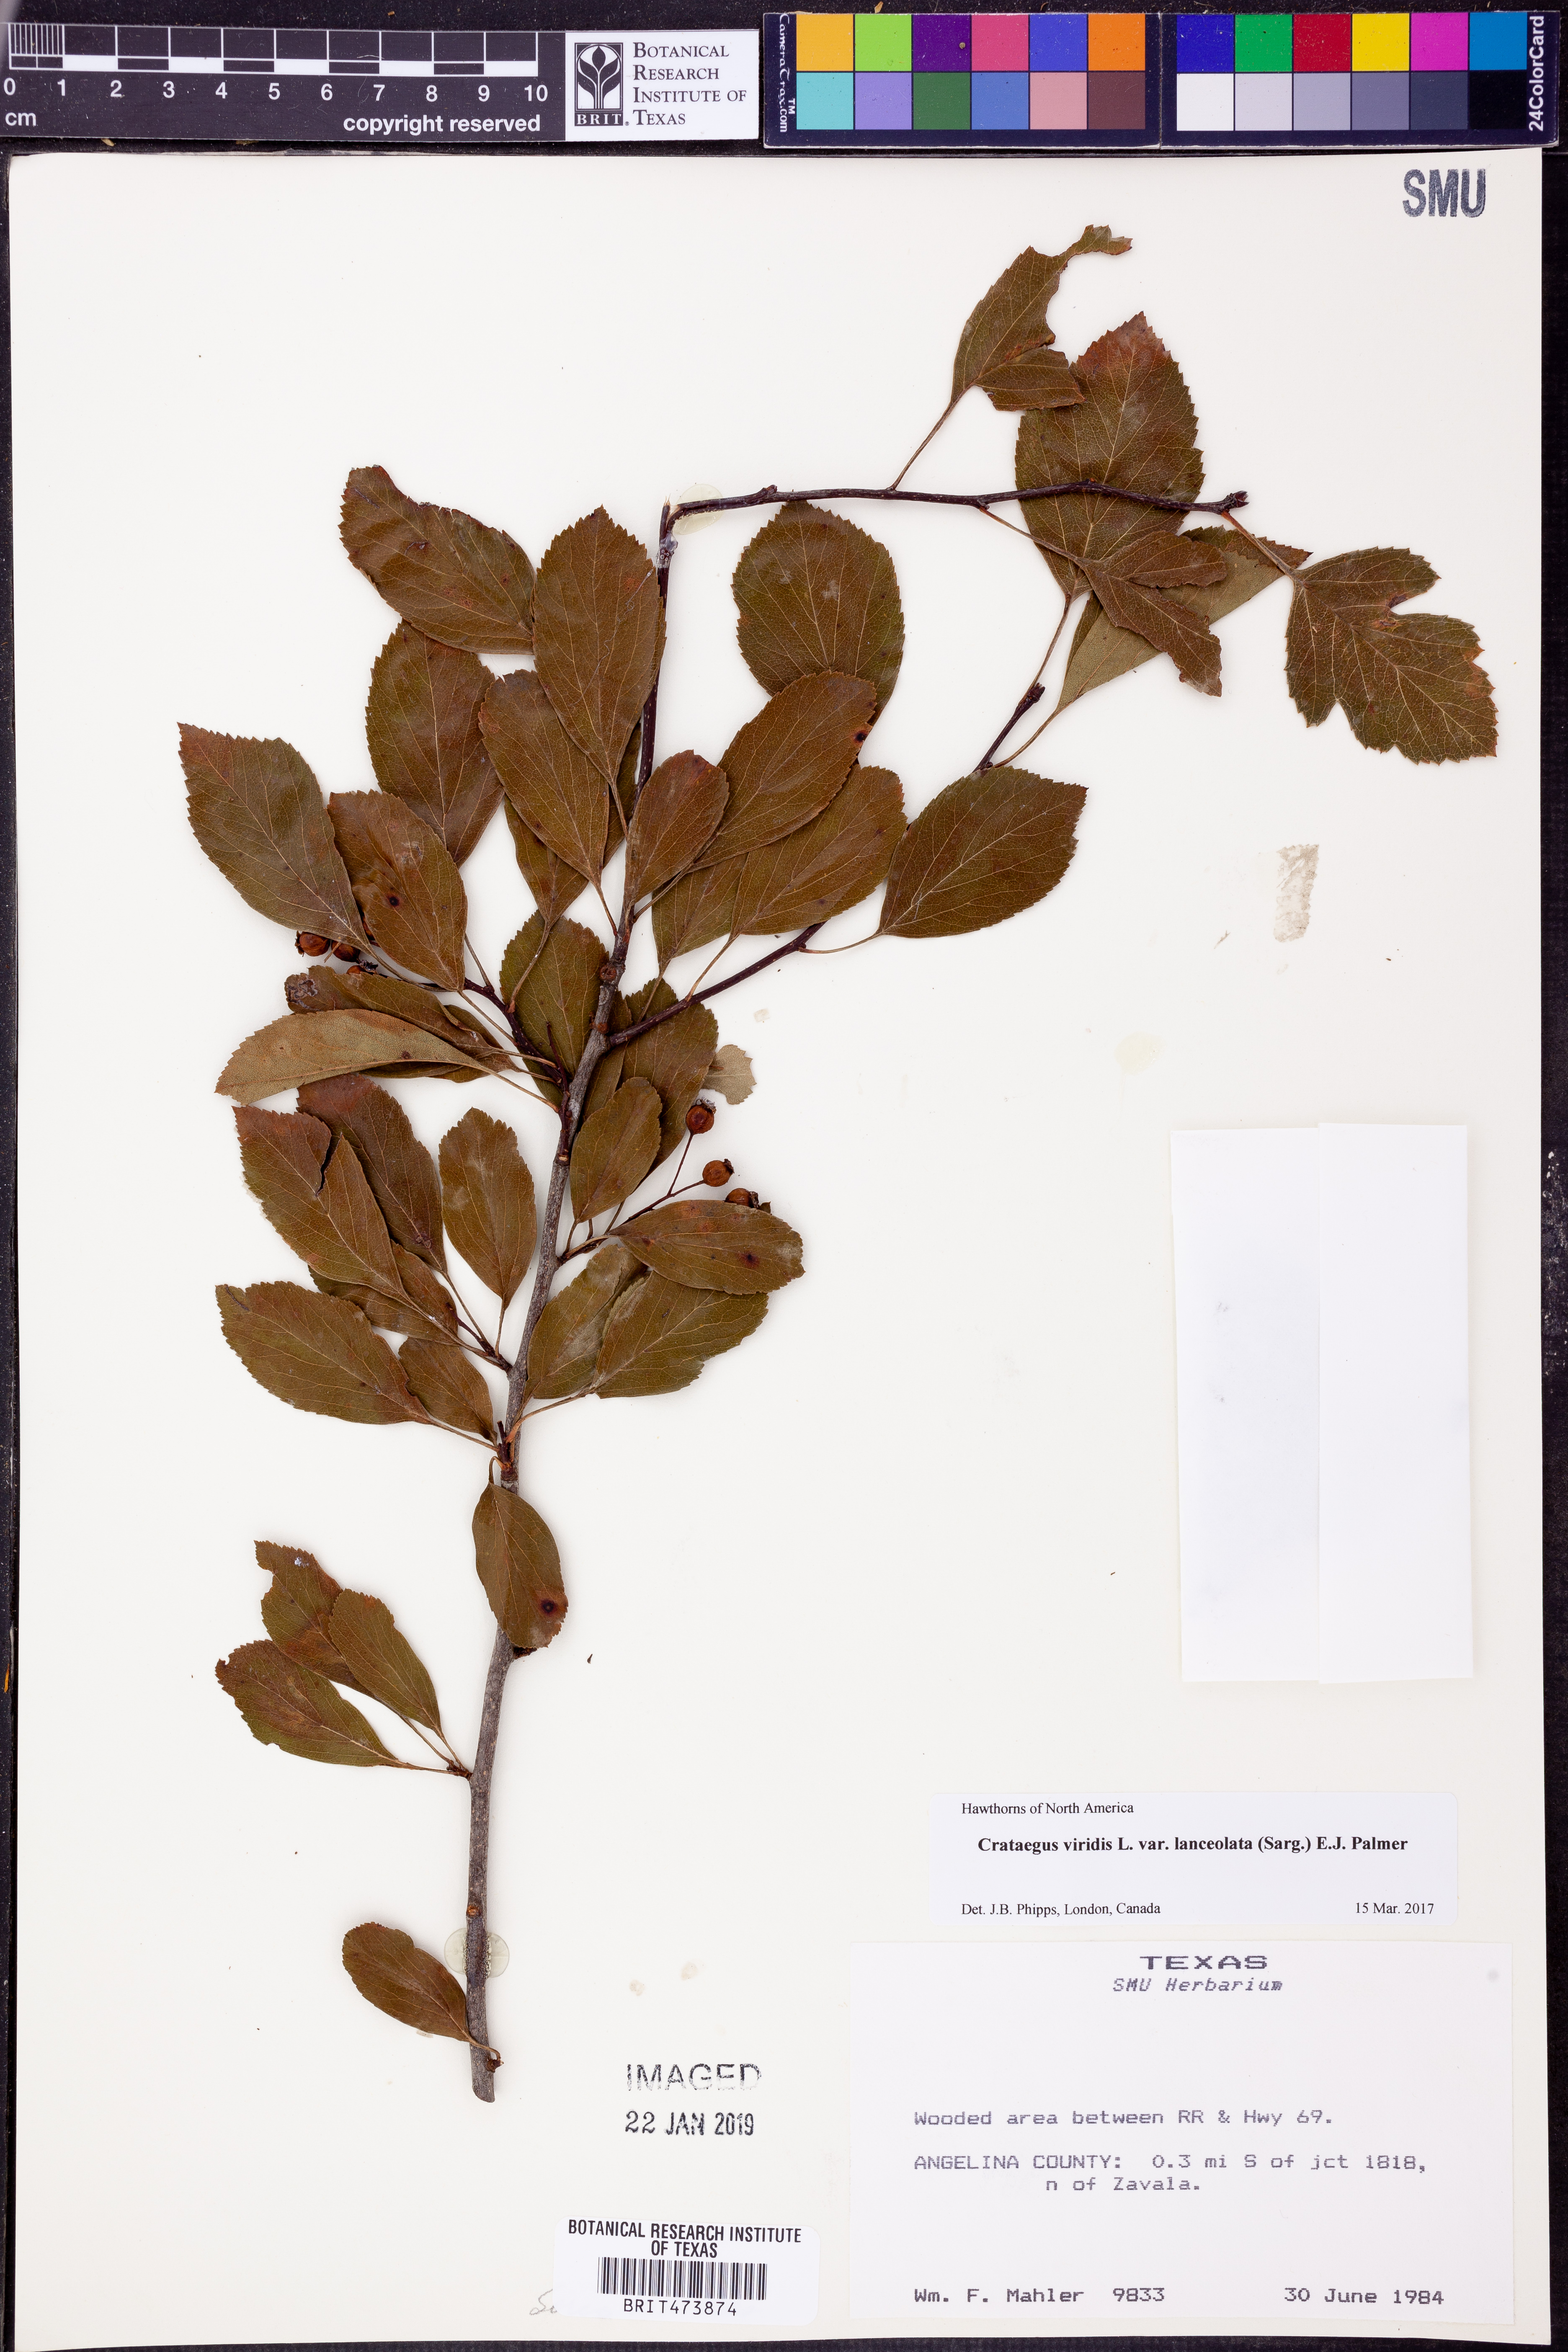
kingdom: Plantae
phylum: Tracheophyta
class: Magnoliopsida
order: Rosales
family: Rosaceae
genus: Crataegus
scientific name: Crataegus viridis
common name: Southernthorn
